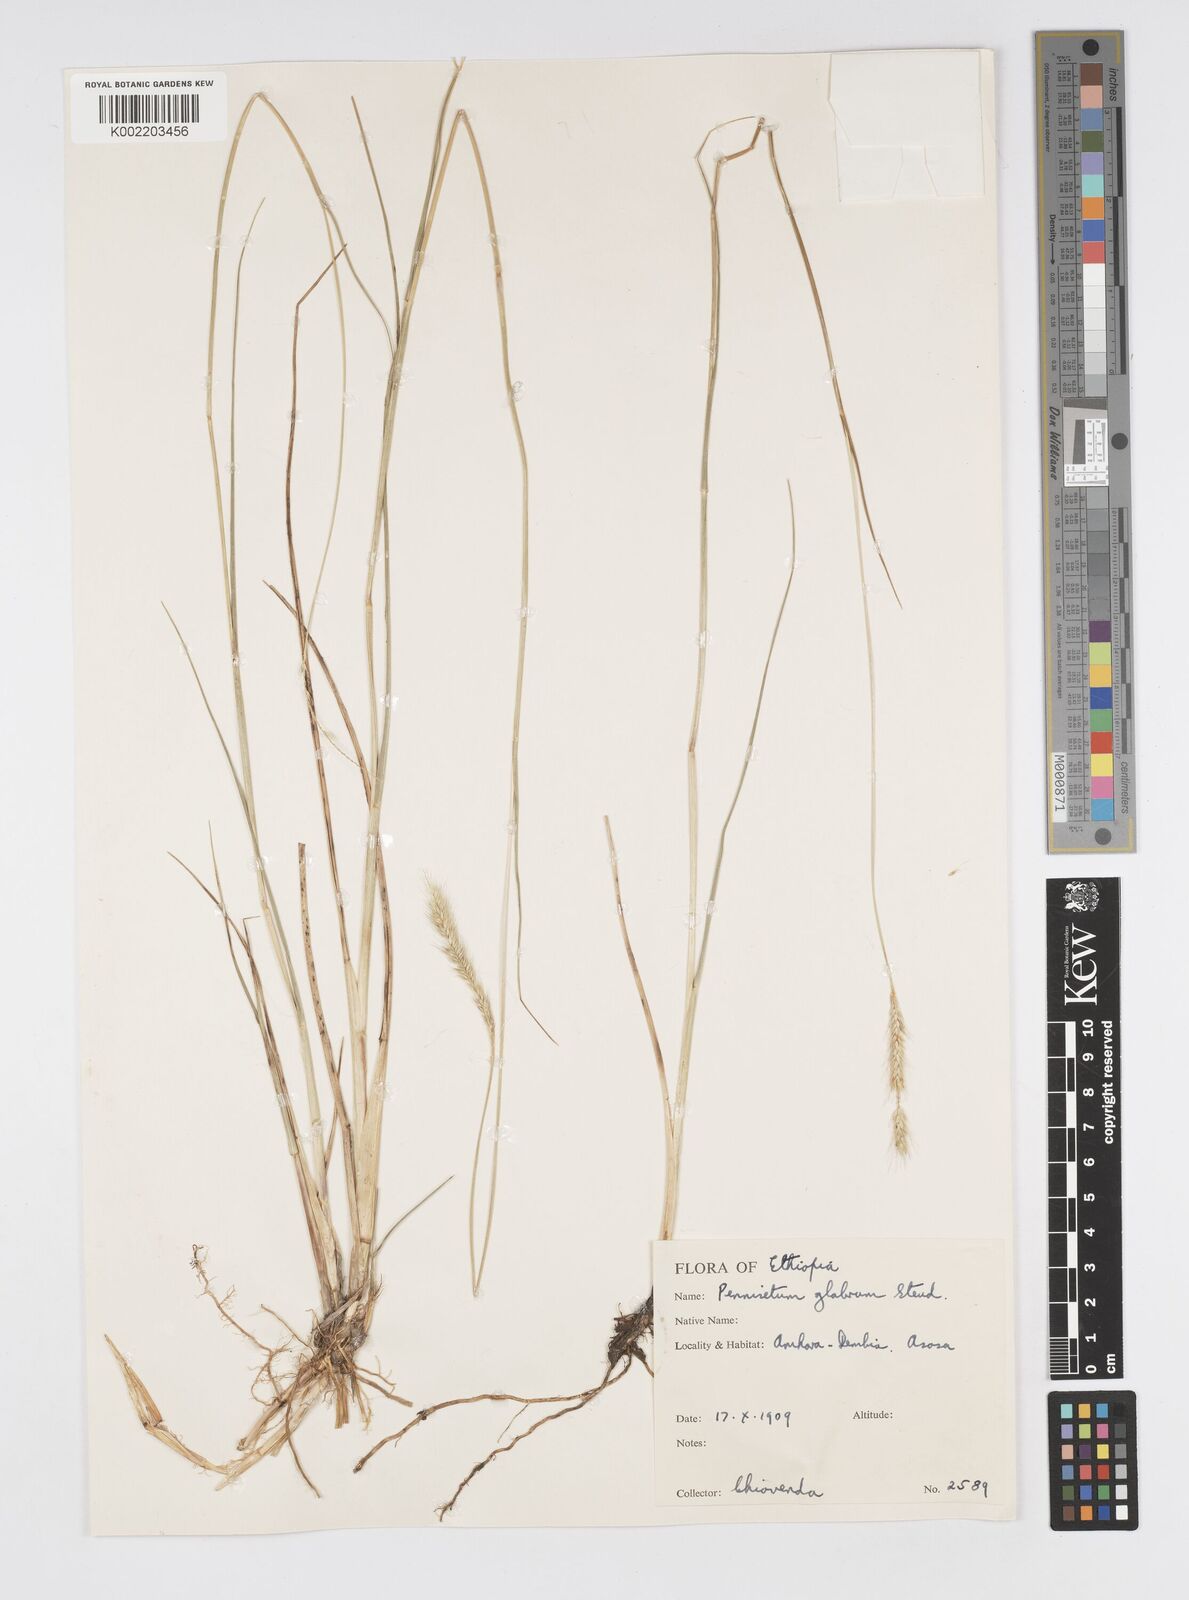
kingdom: Plantae
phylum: Tracheophyta
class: Liliopsida
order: Poales
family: Poaceae
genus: Cenchrus
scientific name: Cenchrus geniculatus
